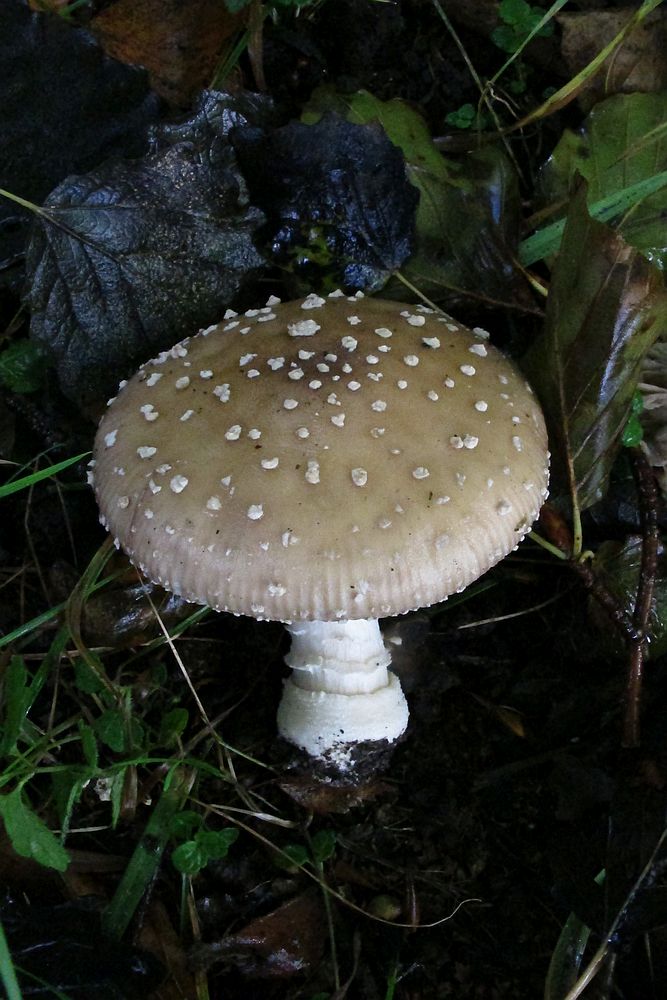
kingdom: Fungi
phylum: Basidiomycota
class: Agaricomycetes
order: Agaricales
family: Amanitaceae
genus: Amanita
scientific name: Amanita pantherina
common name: panter-fluesvamp
